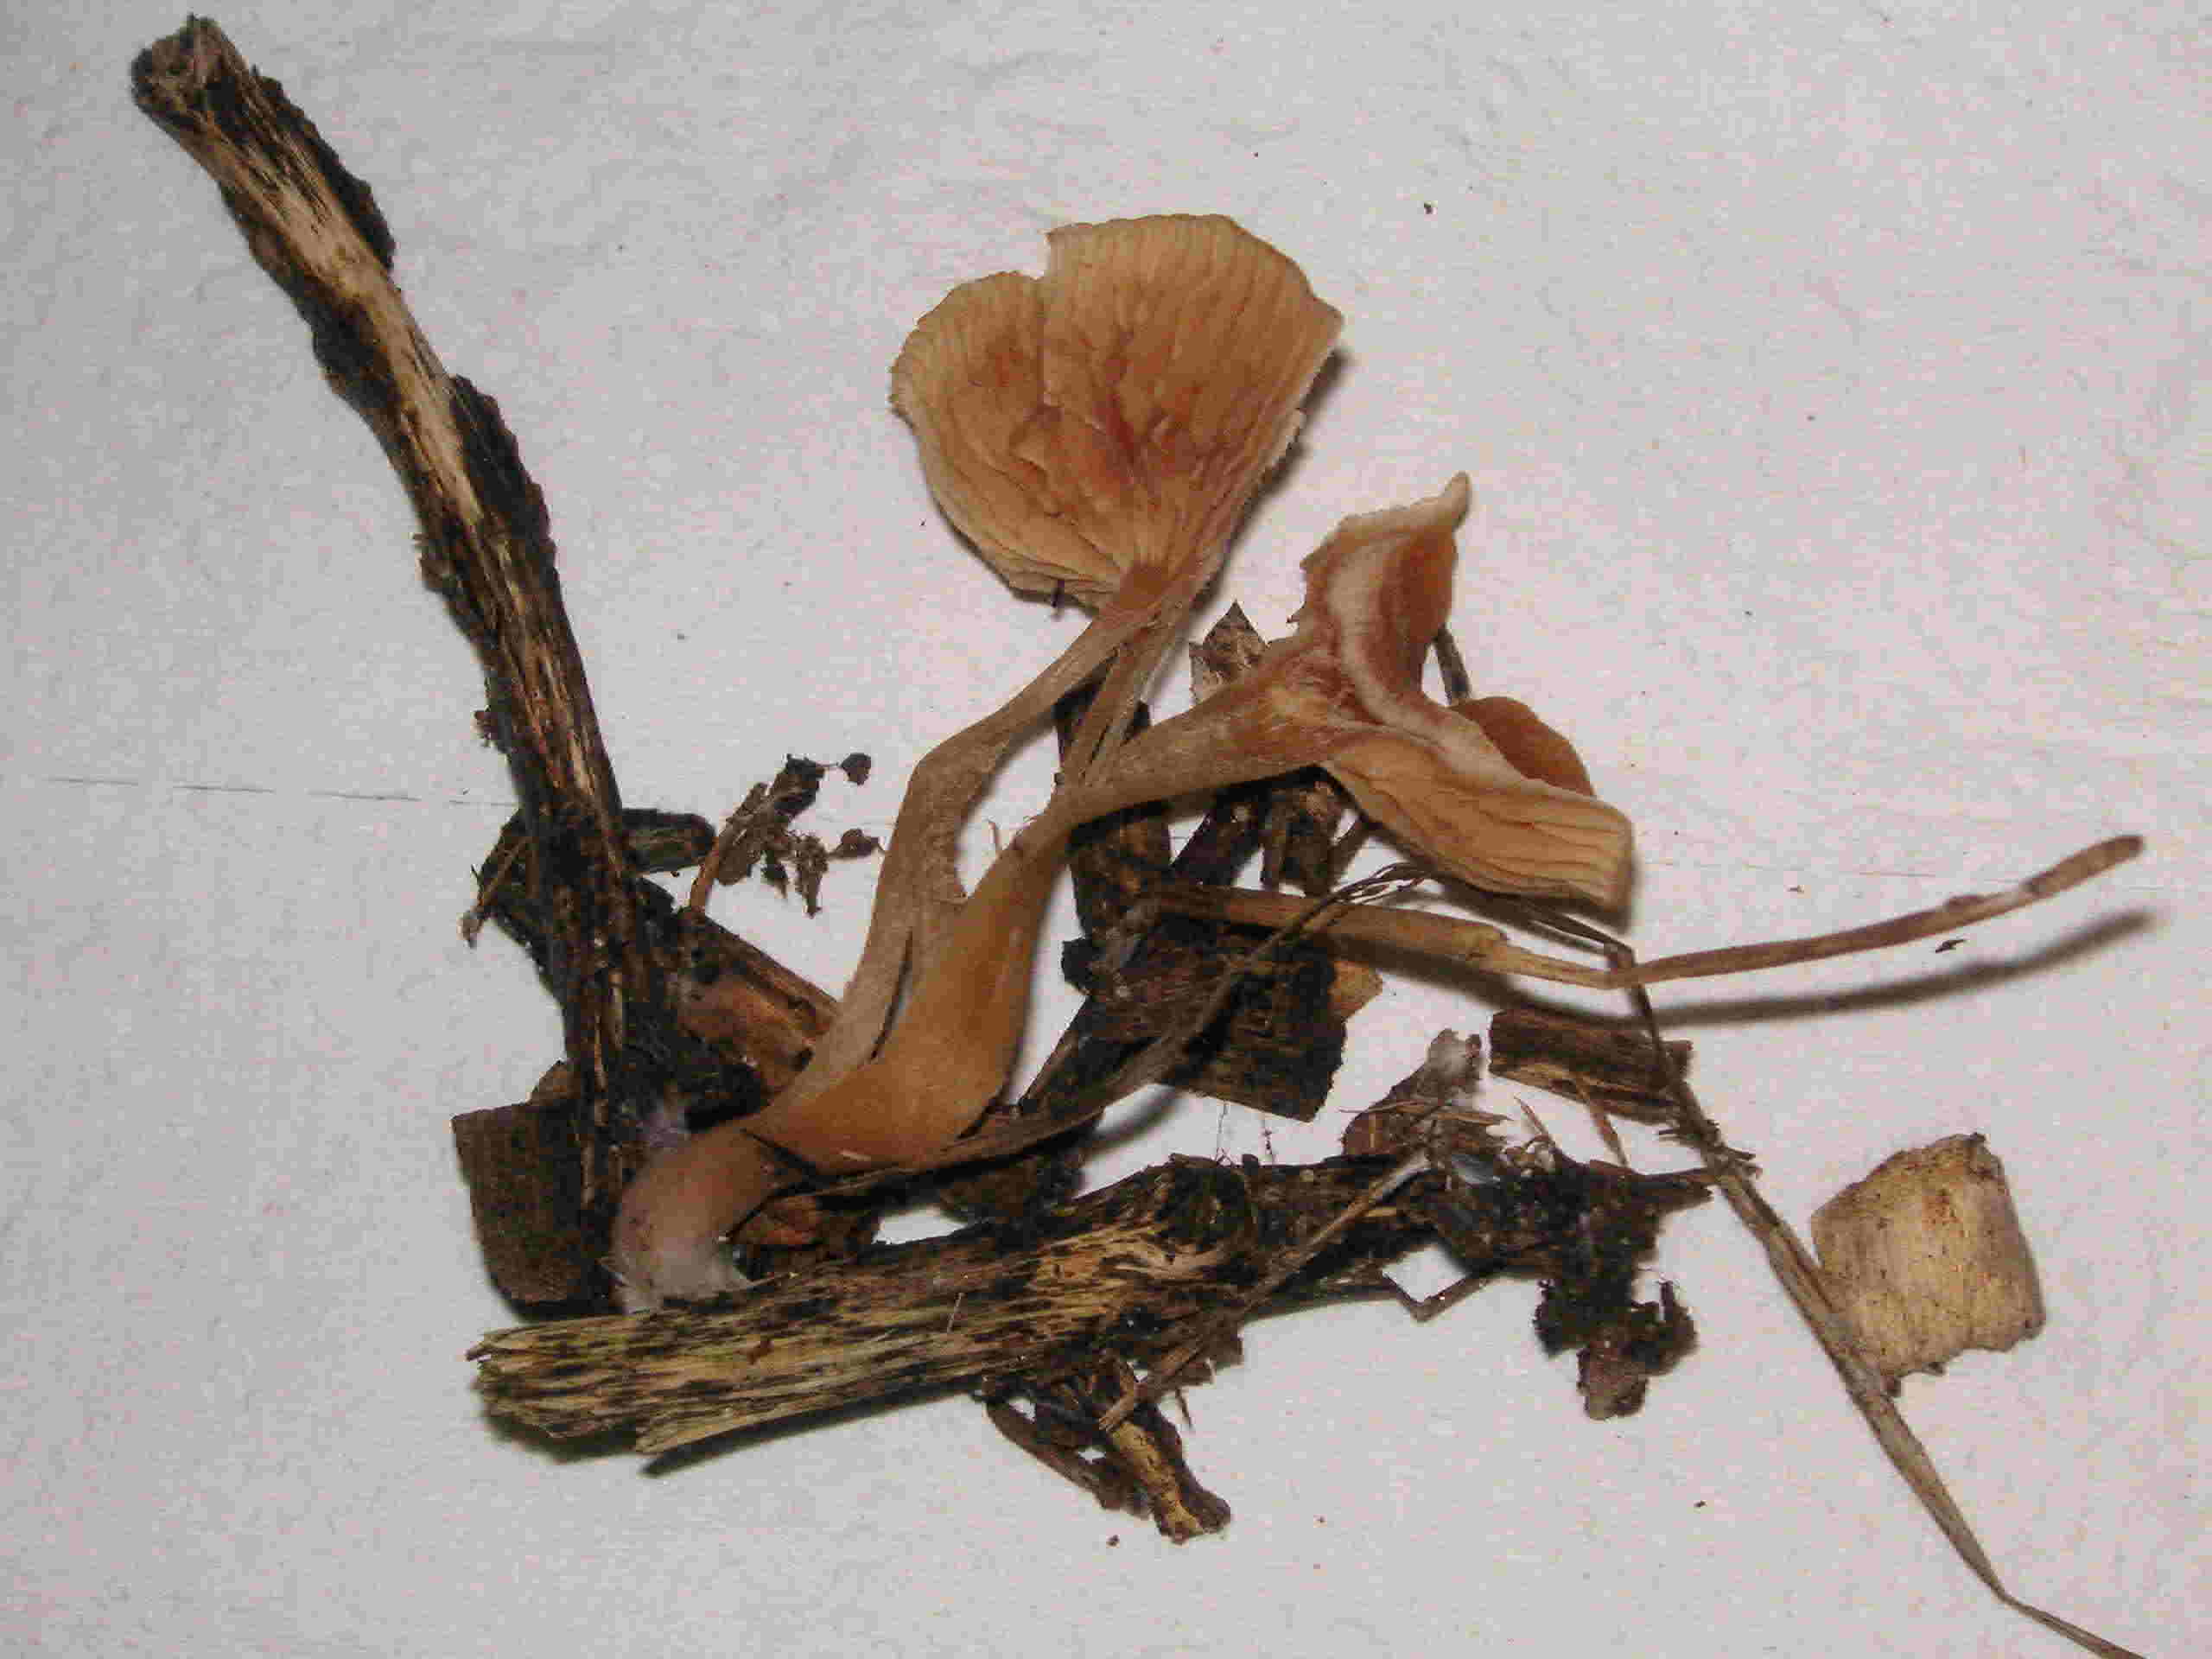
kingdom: Fungi
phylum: Basidiomycota
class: Agaricomycetes
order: Agaricales
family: Tubariaceae
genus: Tubaria
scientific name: Tubaria furfuracea
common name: kliddet fnughat
